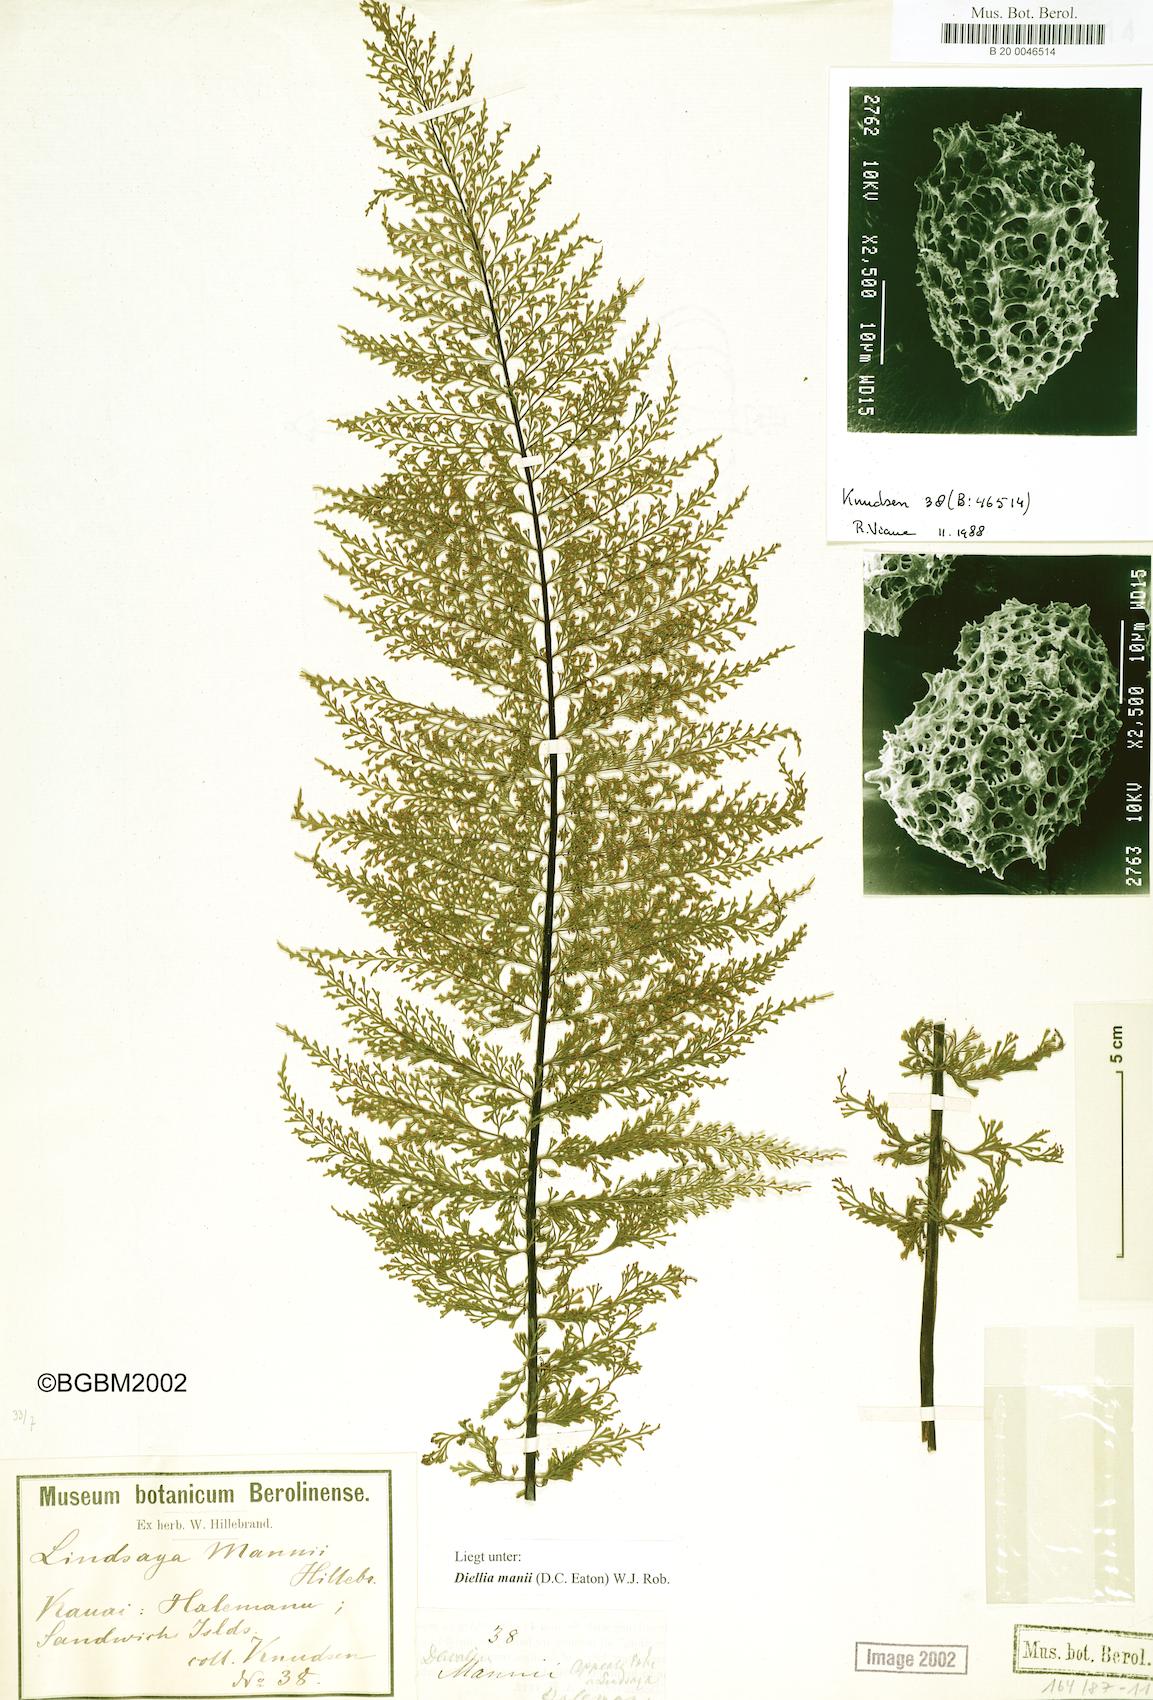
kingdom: Plantae
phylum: Tracheophyta
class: Polypodiopsida
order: Polypodiales
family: Aspleniaceae
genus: Asplenium
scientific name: Asplenium dielmannii
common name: Mann's island spleenwort
